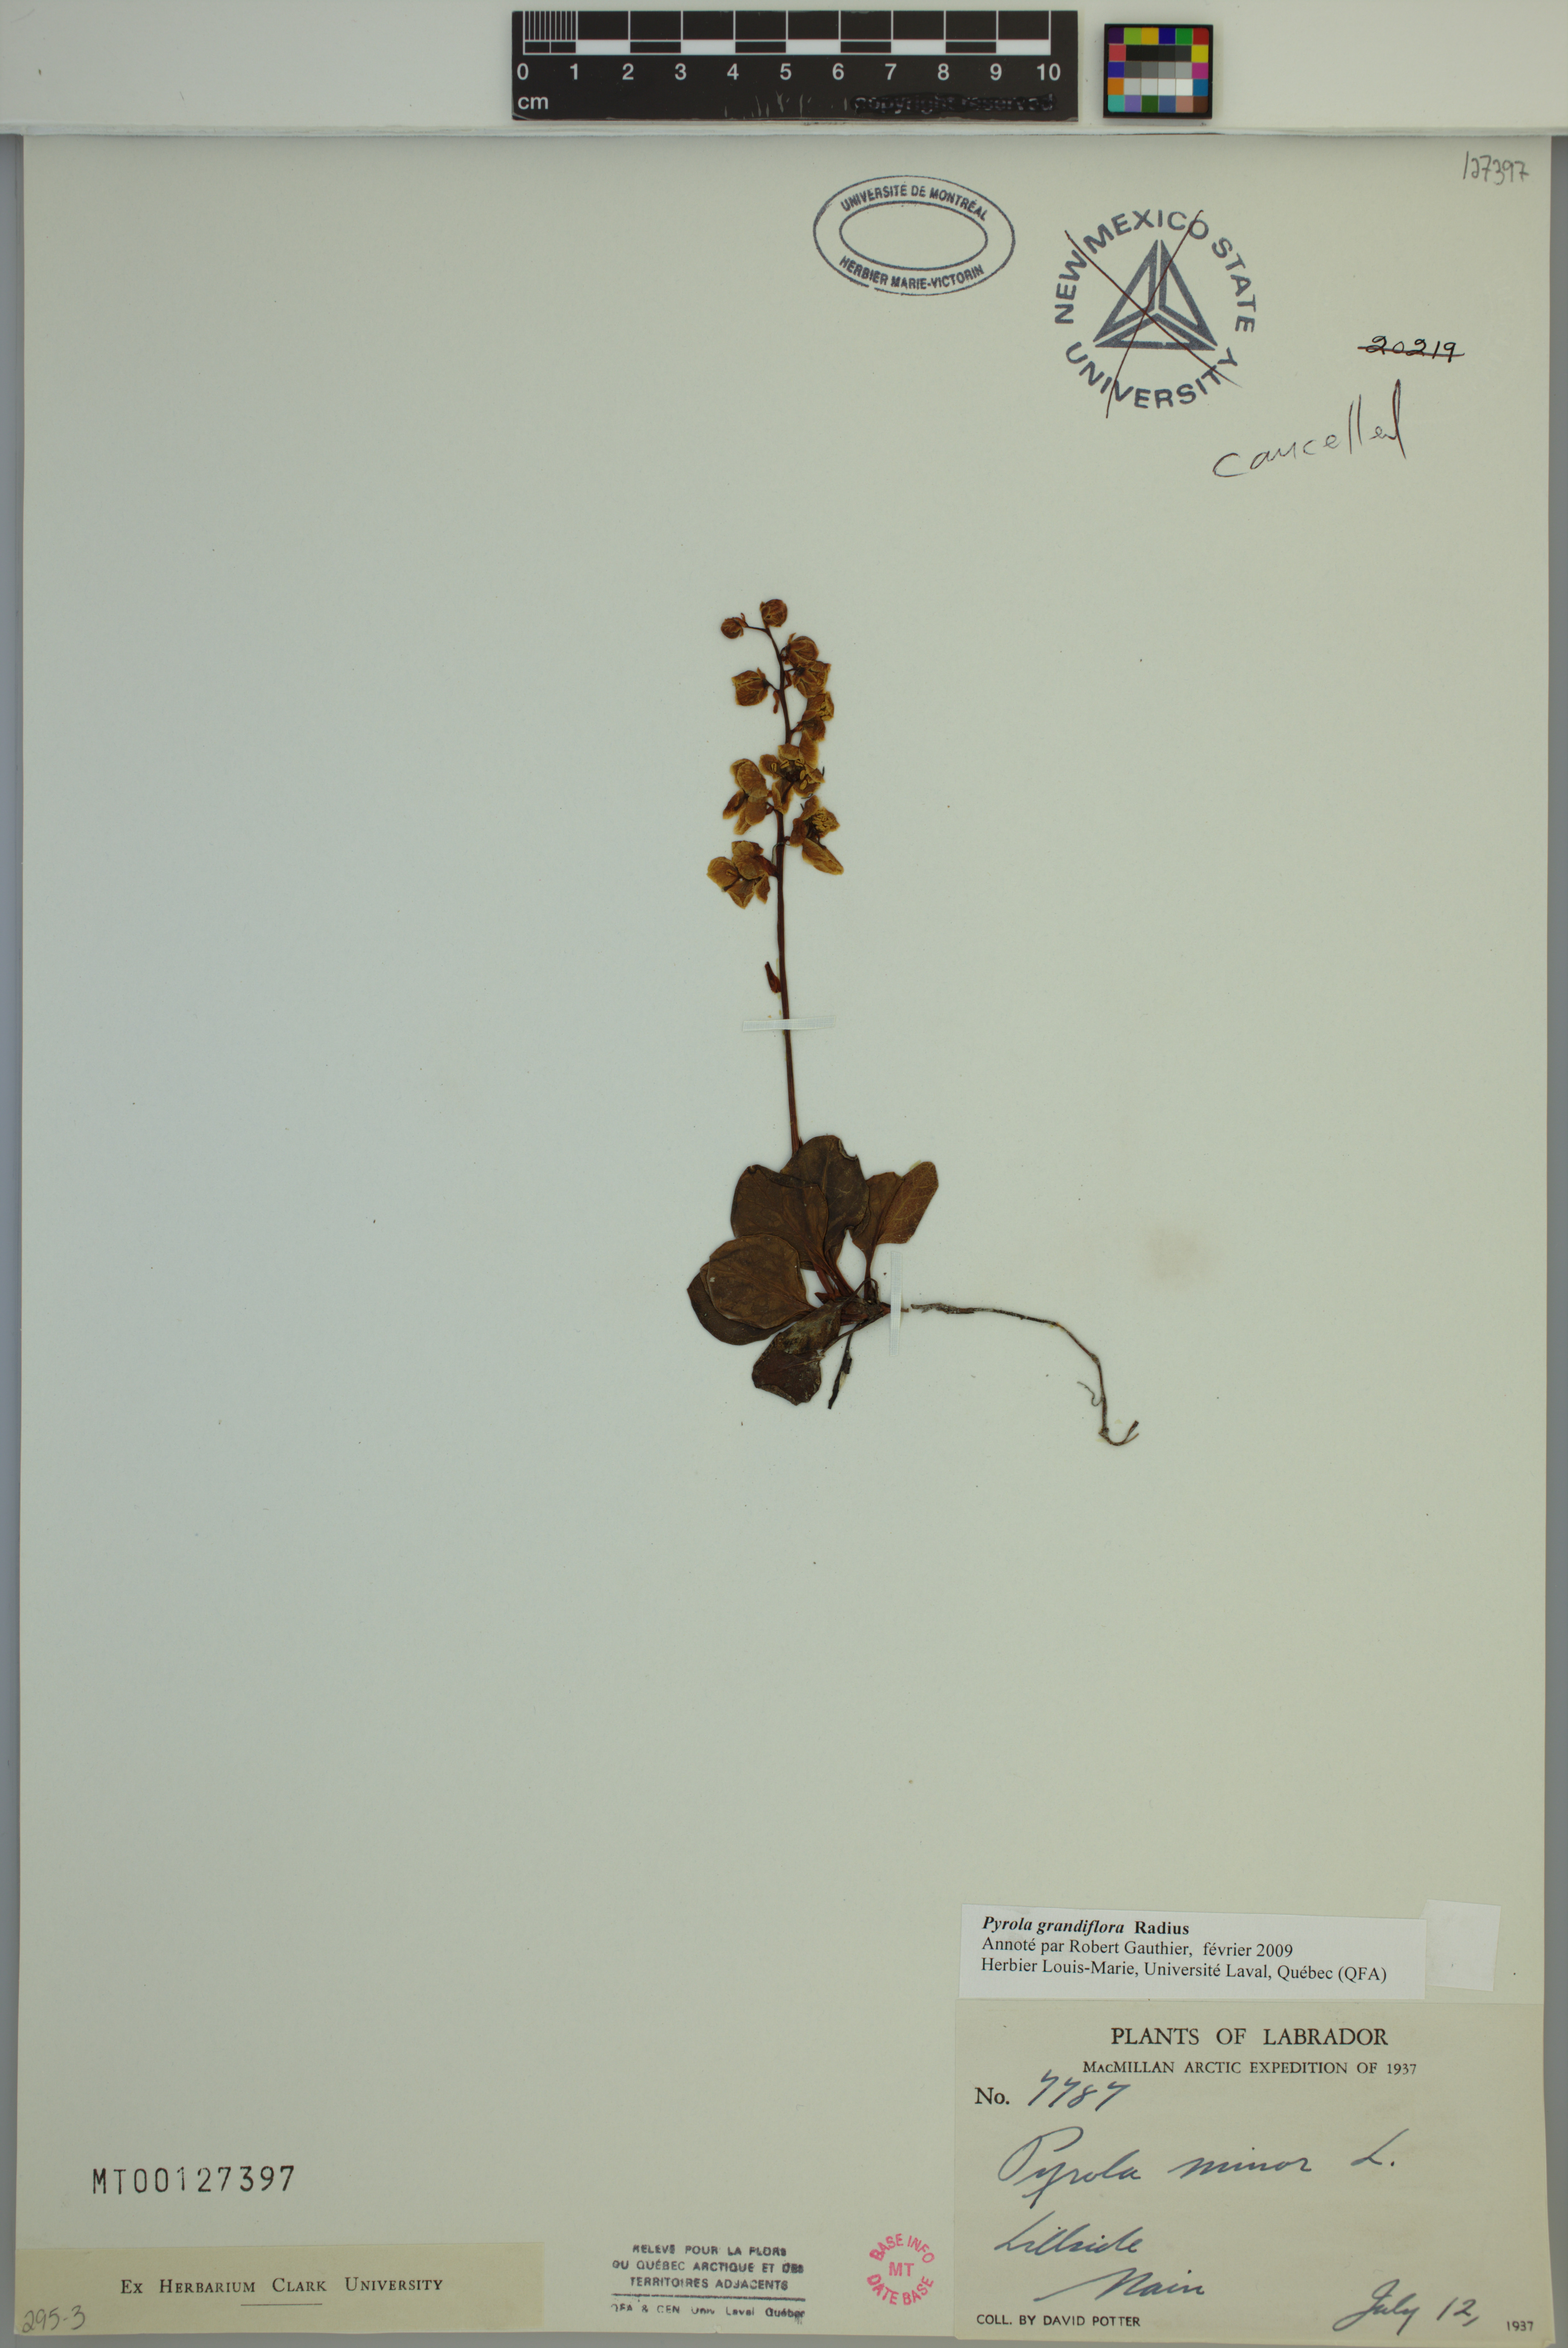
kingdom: Plantae
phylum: Tracheophyta
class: Magnoliopsida
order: Ericales
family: Ericaceae
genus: Pyrola
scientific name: Pyrola grandiflora
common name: Arctic pyrola
